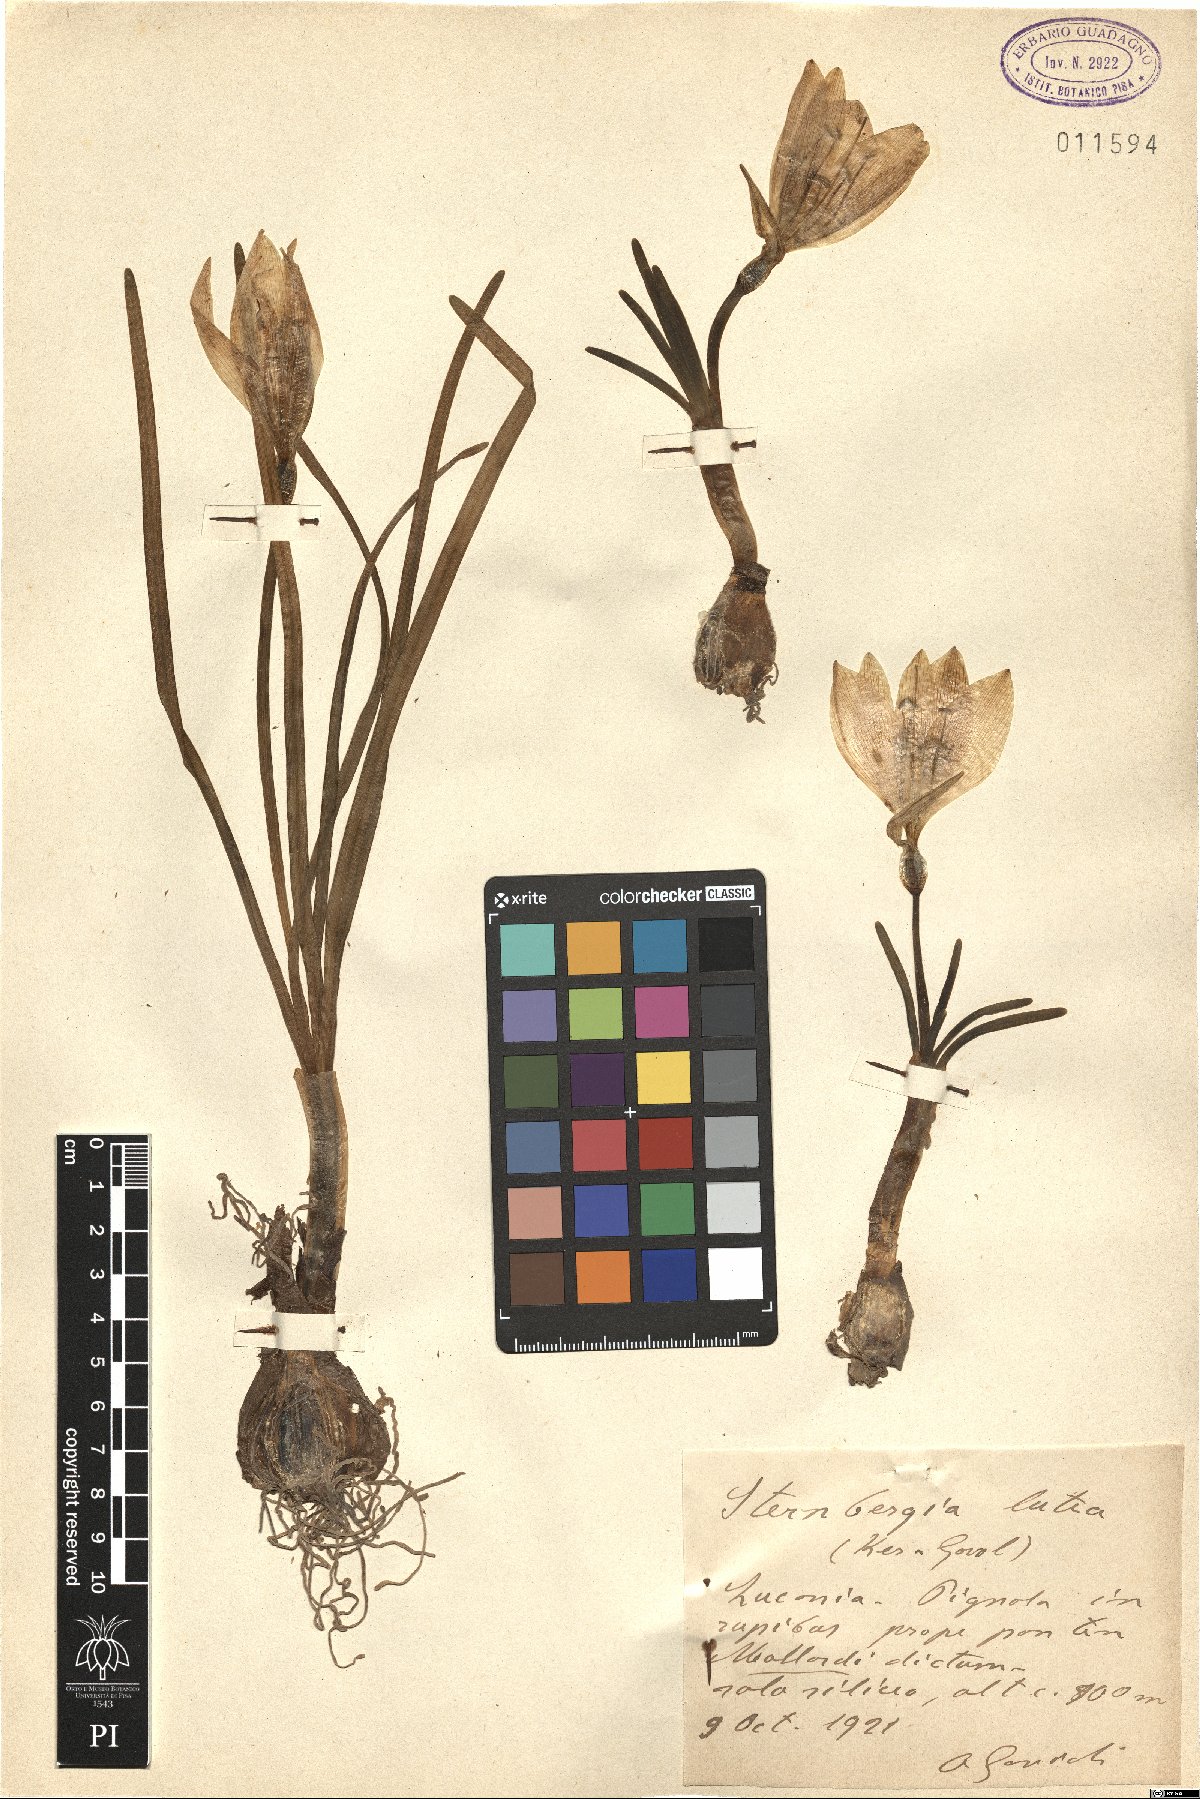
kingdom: Plantae
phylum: Tracheophyta
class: Liliopsida
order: Asparagales
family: Amaryllidaceae
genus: Sternbergia
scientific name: Sternbergia lutea
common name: Winter daffodil
